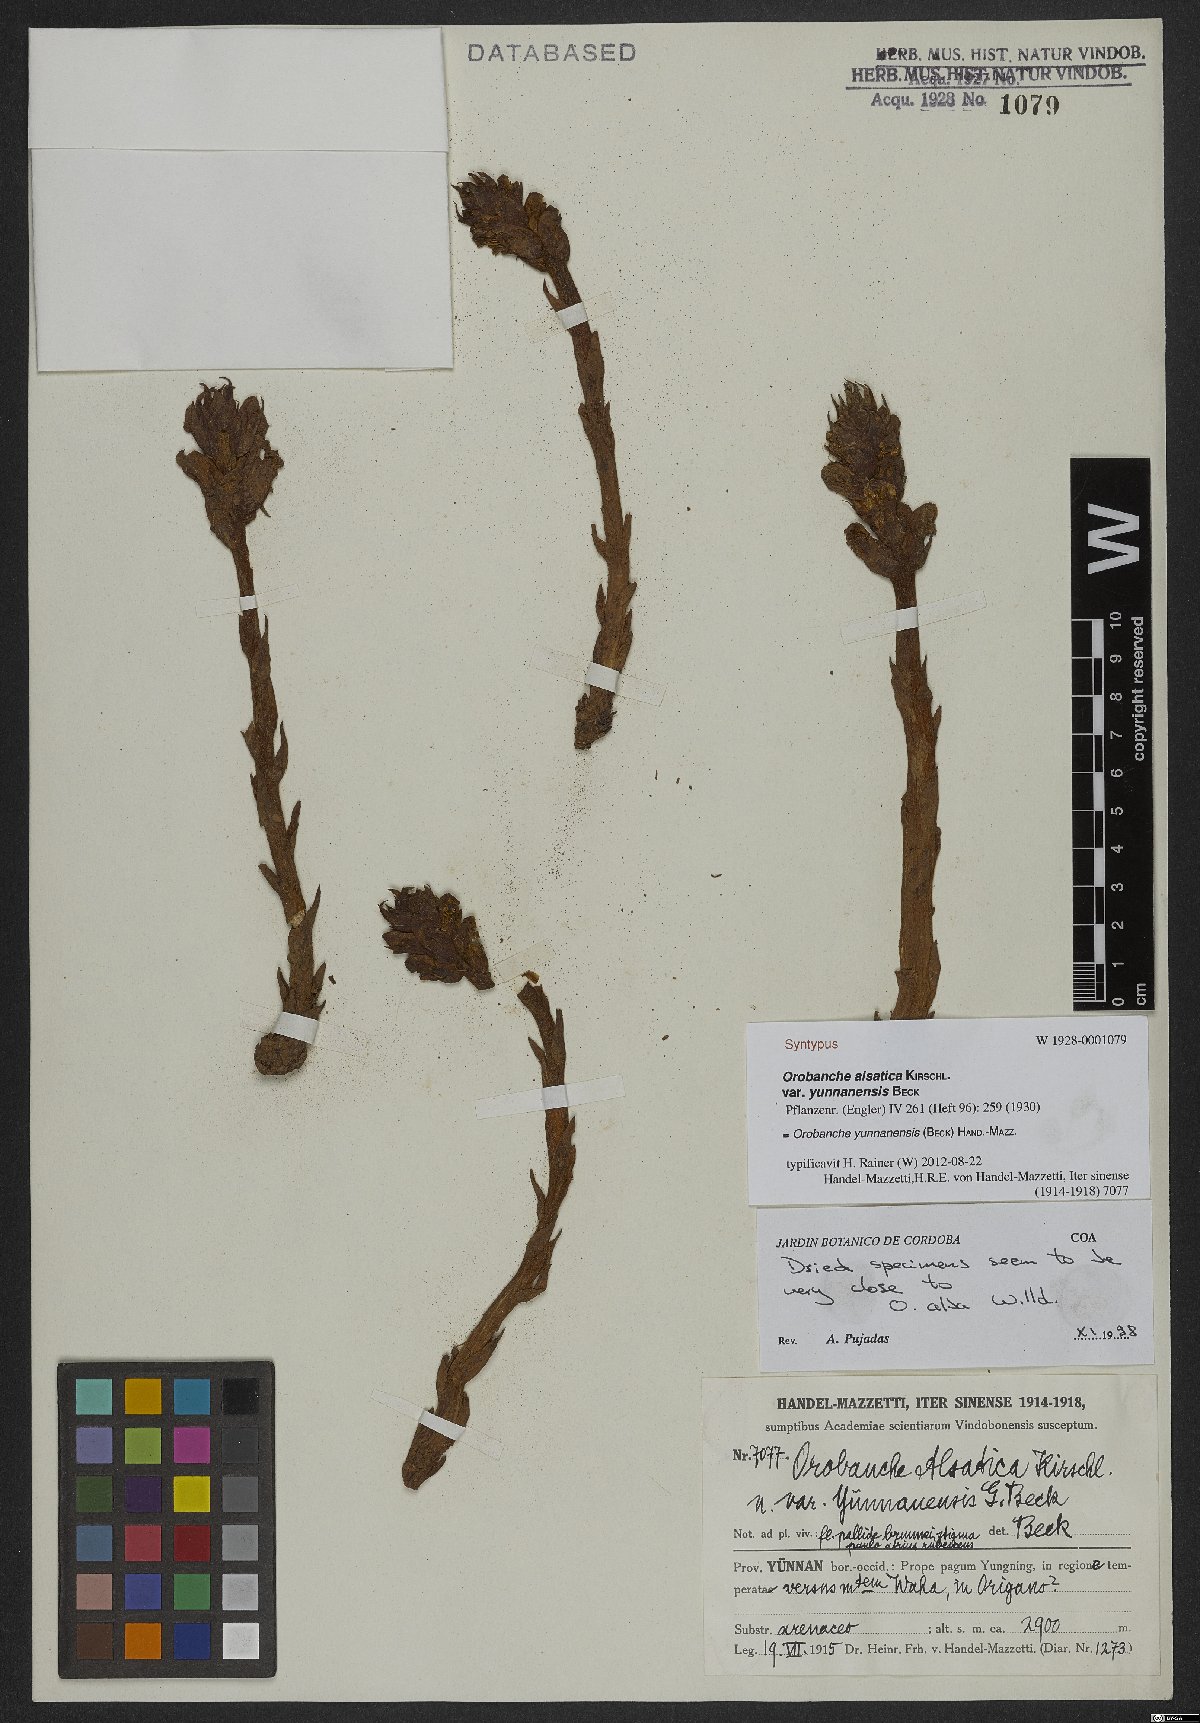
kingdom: Plantae
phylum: Tracheophyta
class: Magnoliopsida
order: Lamiales
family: Orobanchaceae
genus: Orobanche
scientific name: Orobanche yunnanensis
